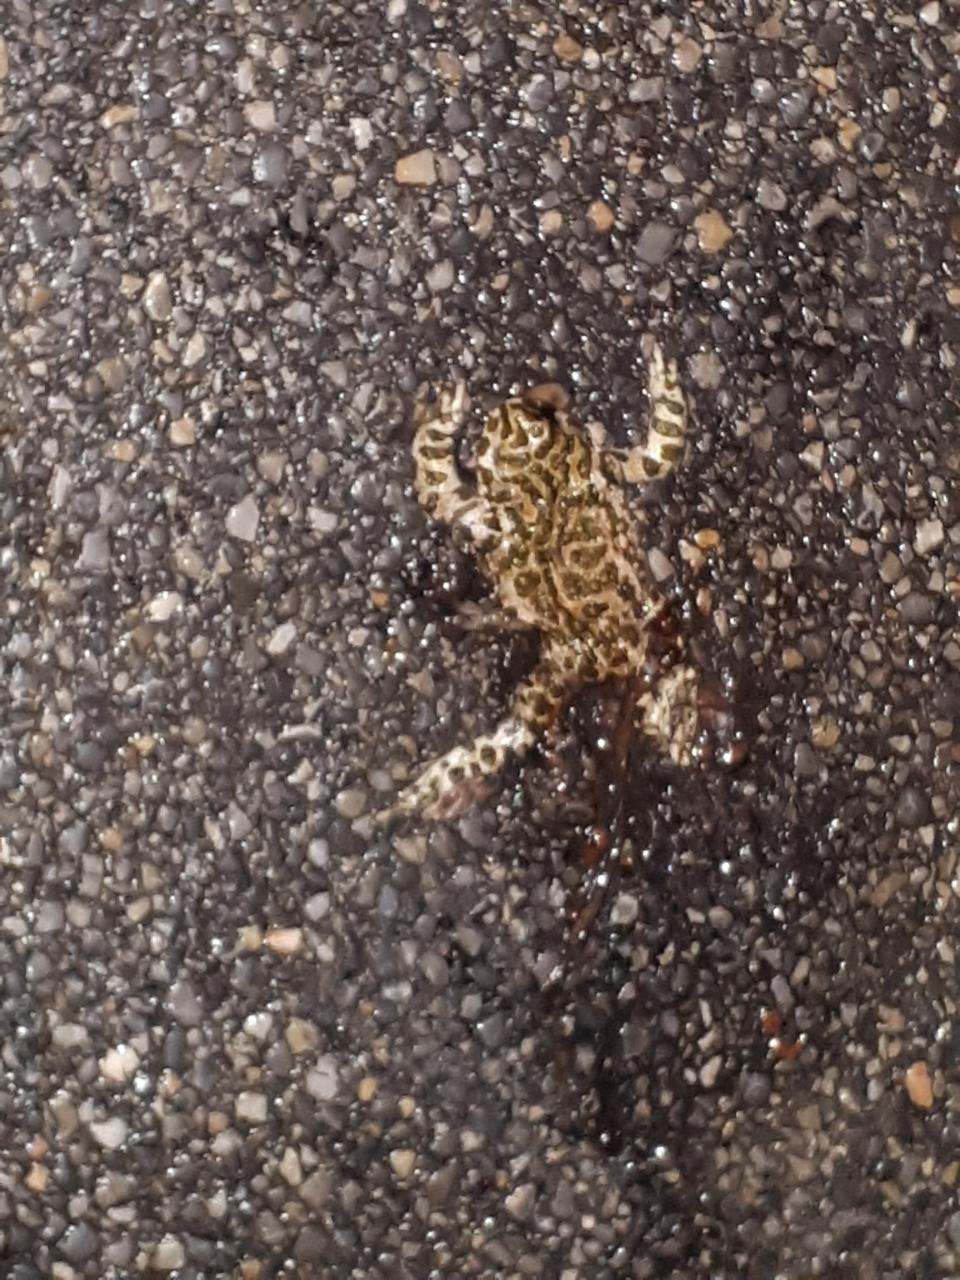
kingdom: Animalia
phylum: Chordata
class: Amphibia
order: Anura
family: Bufonidae
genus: Bufotes
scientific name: Bufotes viridis
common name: European green toad
